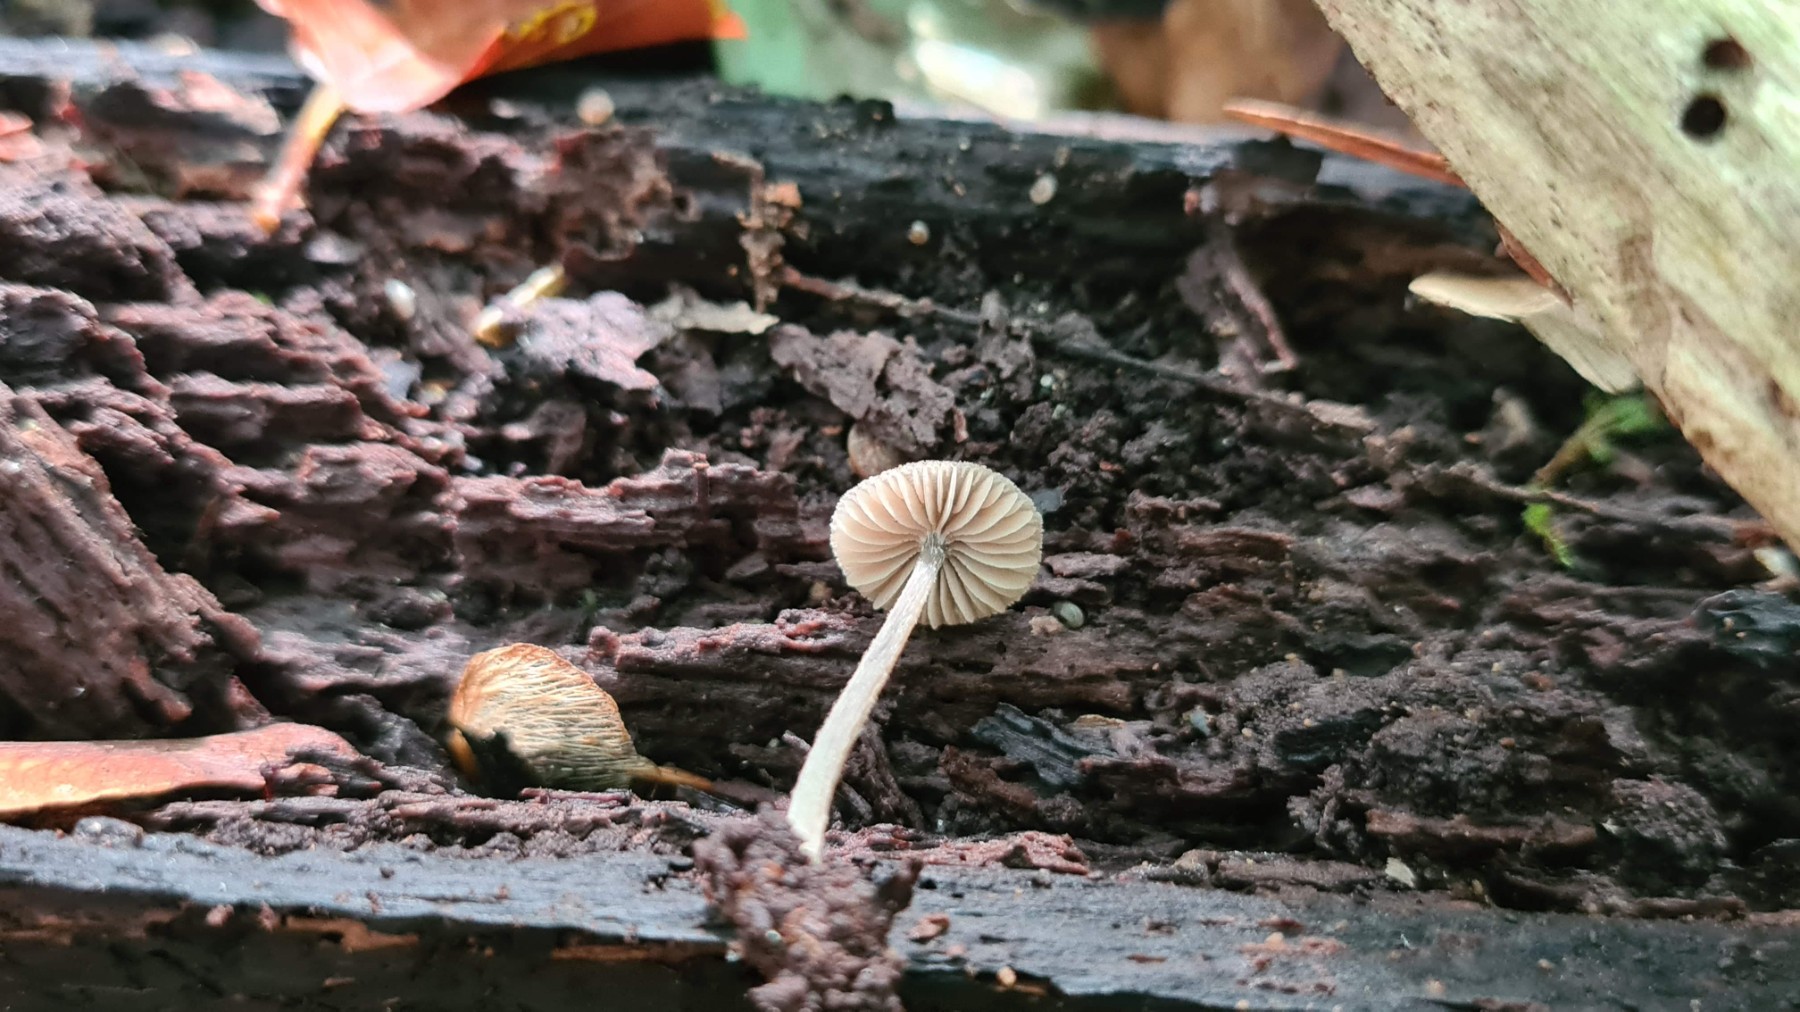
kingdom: Fungi
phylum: Basidiomycota
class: Agaricomycetes
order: Agaricales
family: Entolomataceae
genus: Entoloma
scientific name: Entoloma
